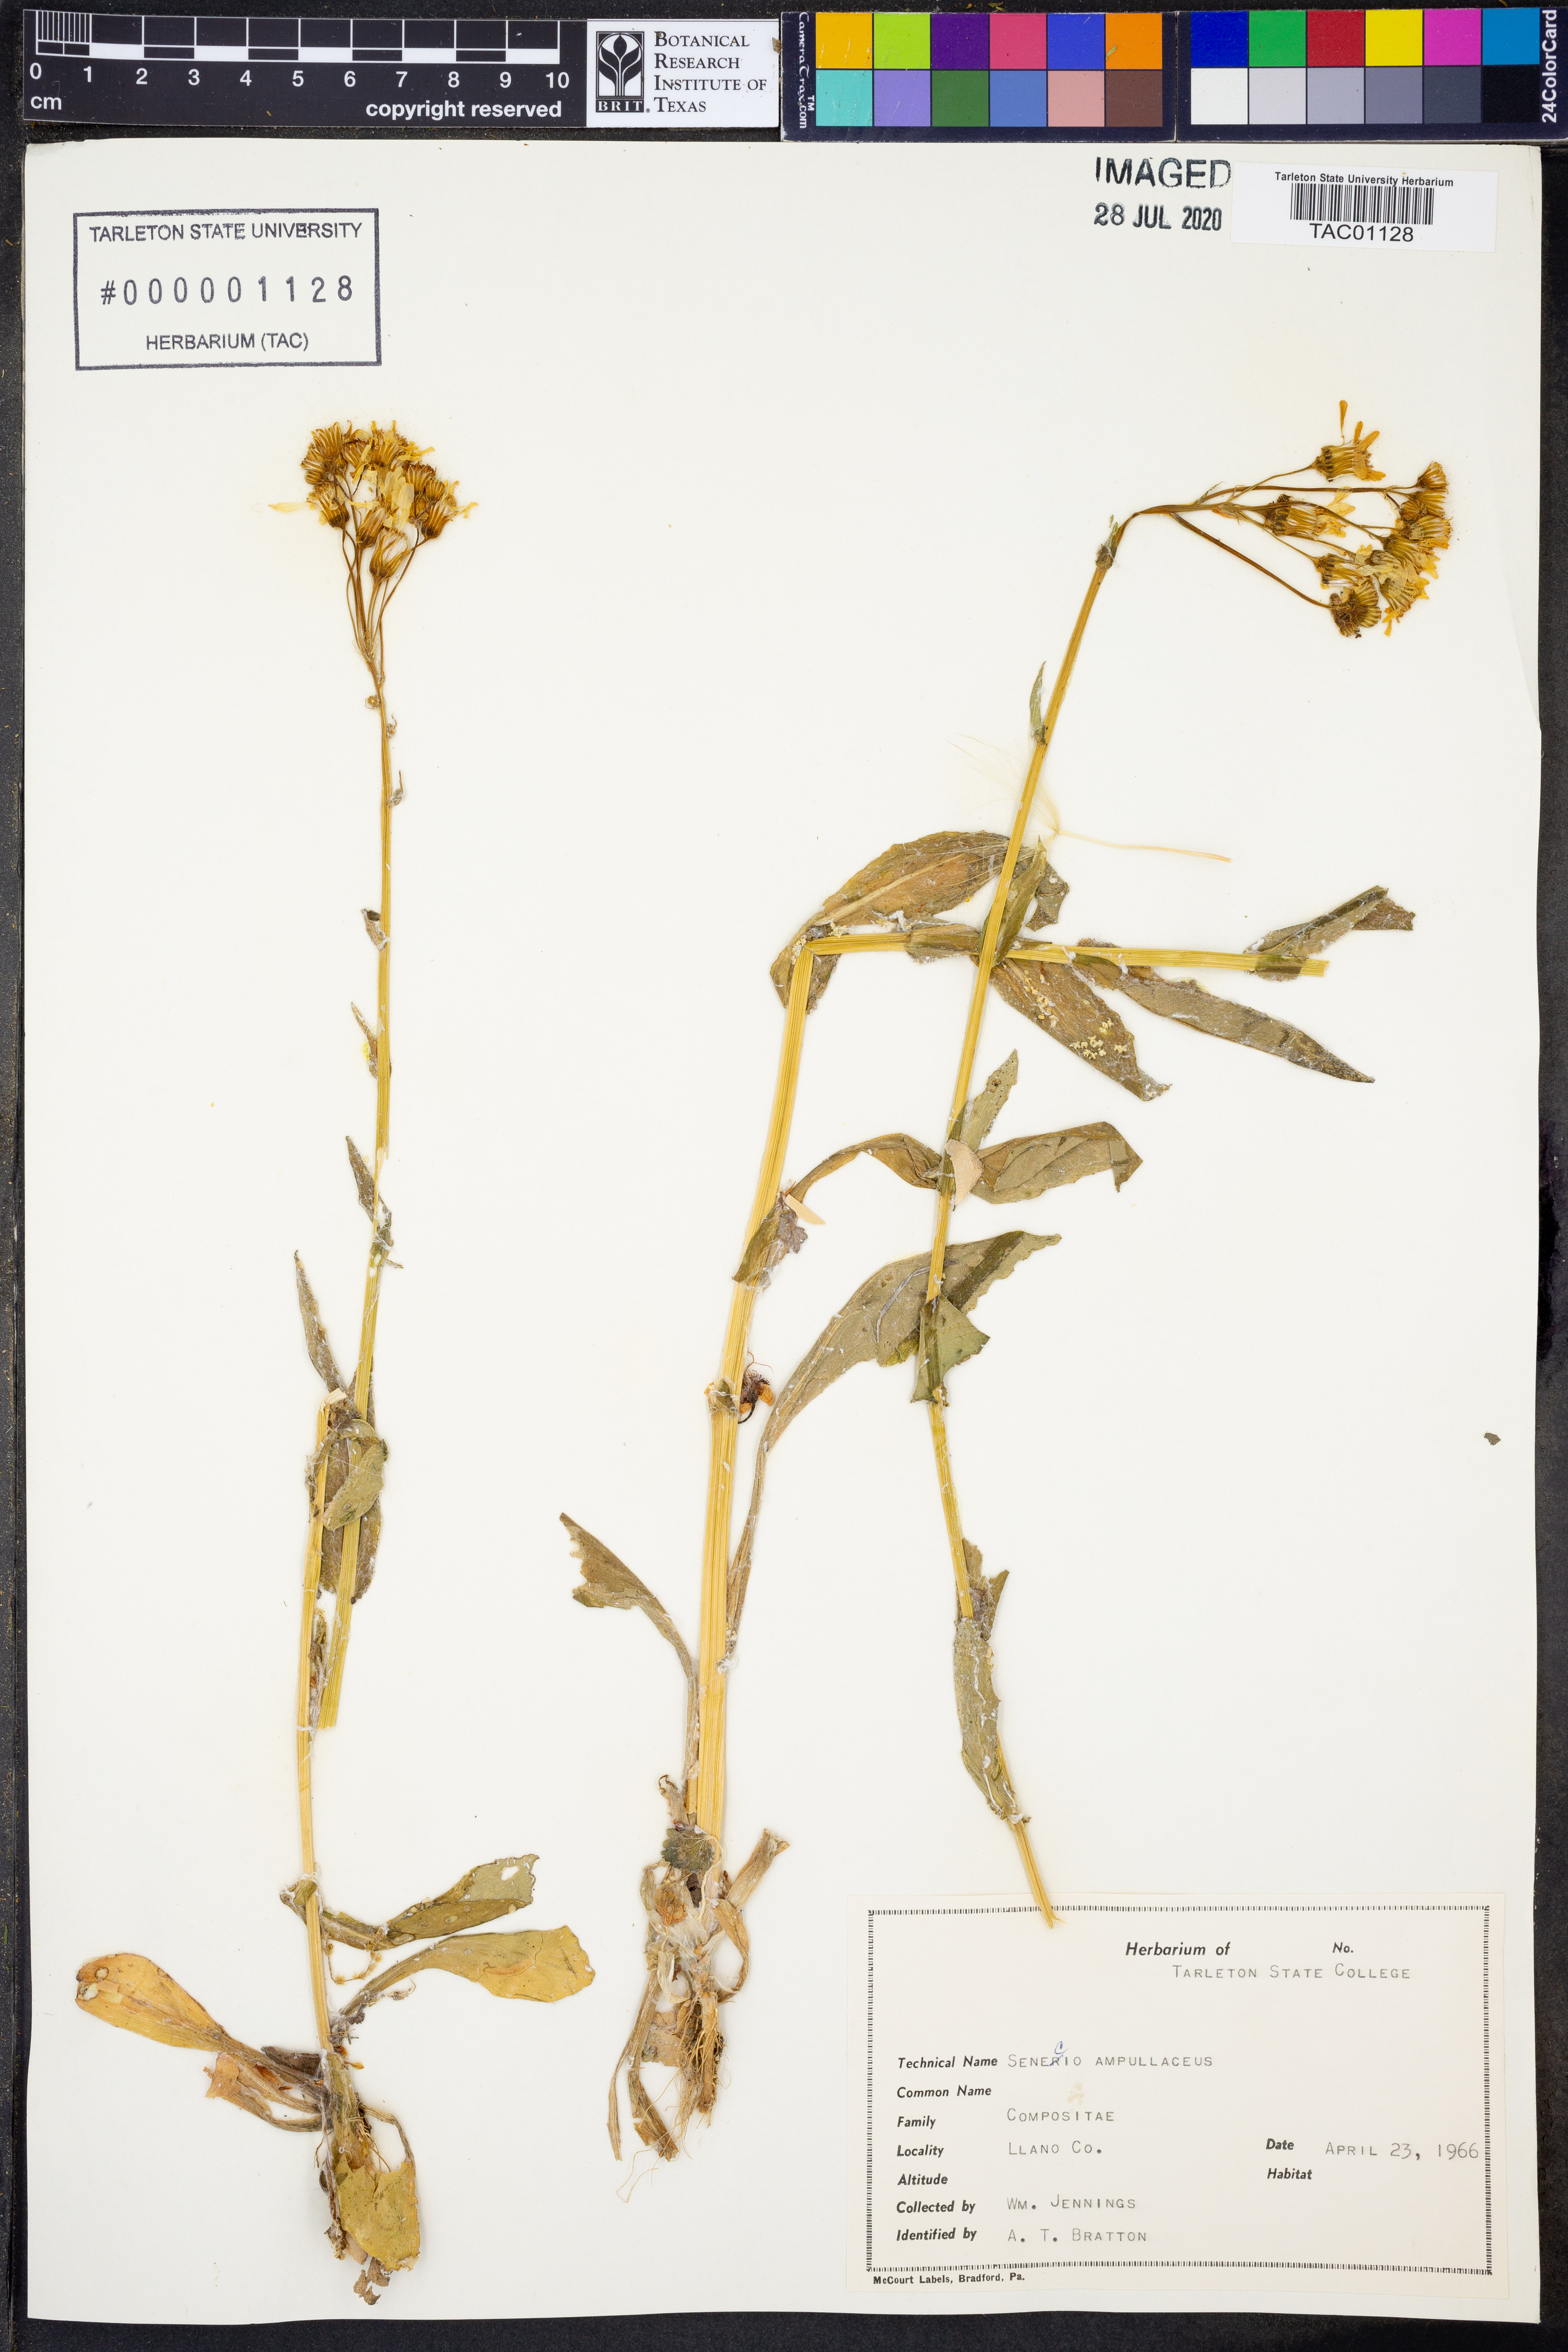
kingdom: Plantae
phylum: Tracheophyta
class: Magnoliopsida
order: Asterales
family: Asteraceae
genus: Senecio
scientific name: Senecio ampullaceus
